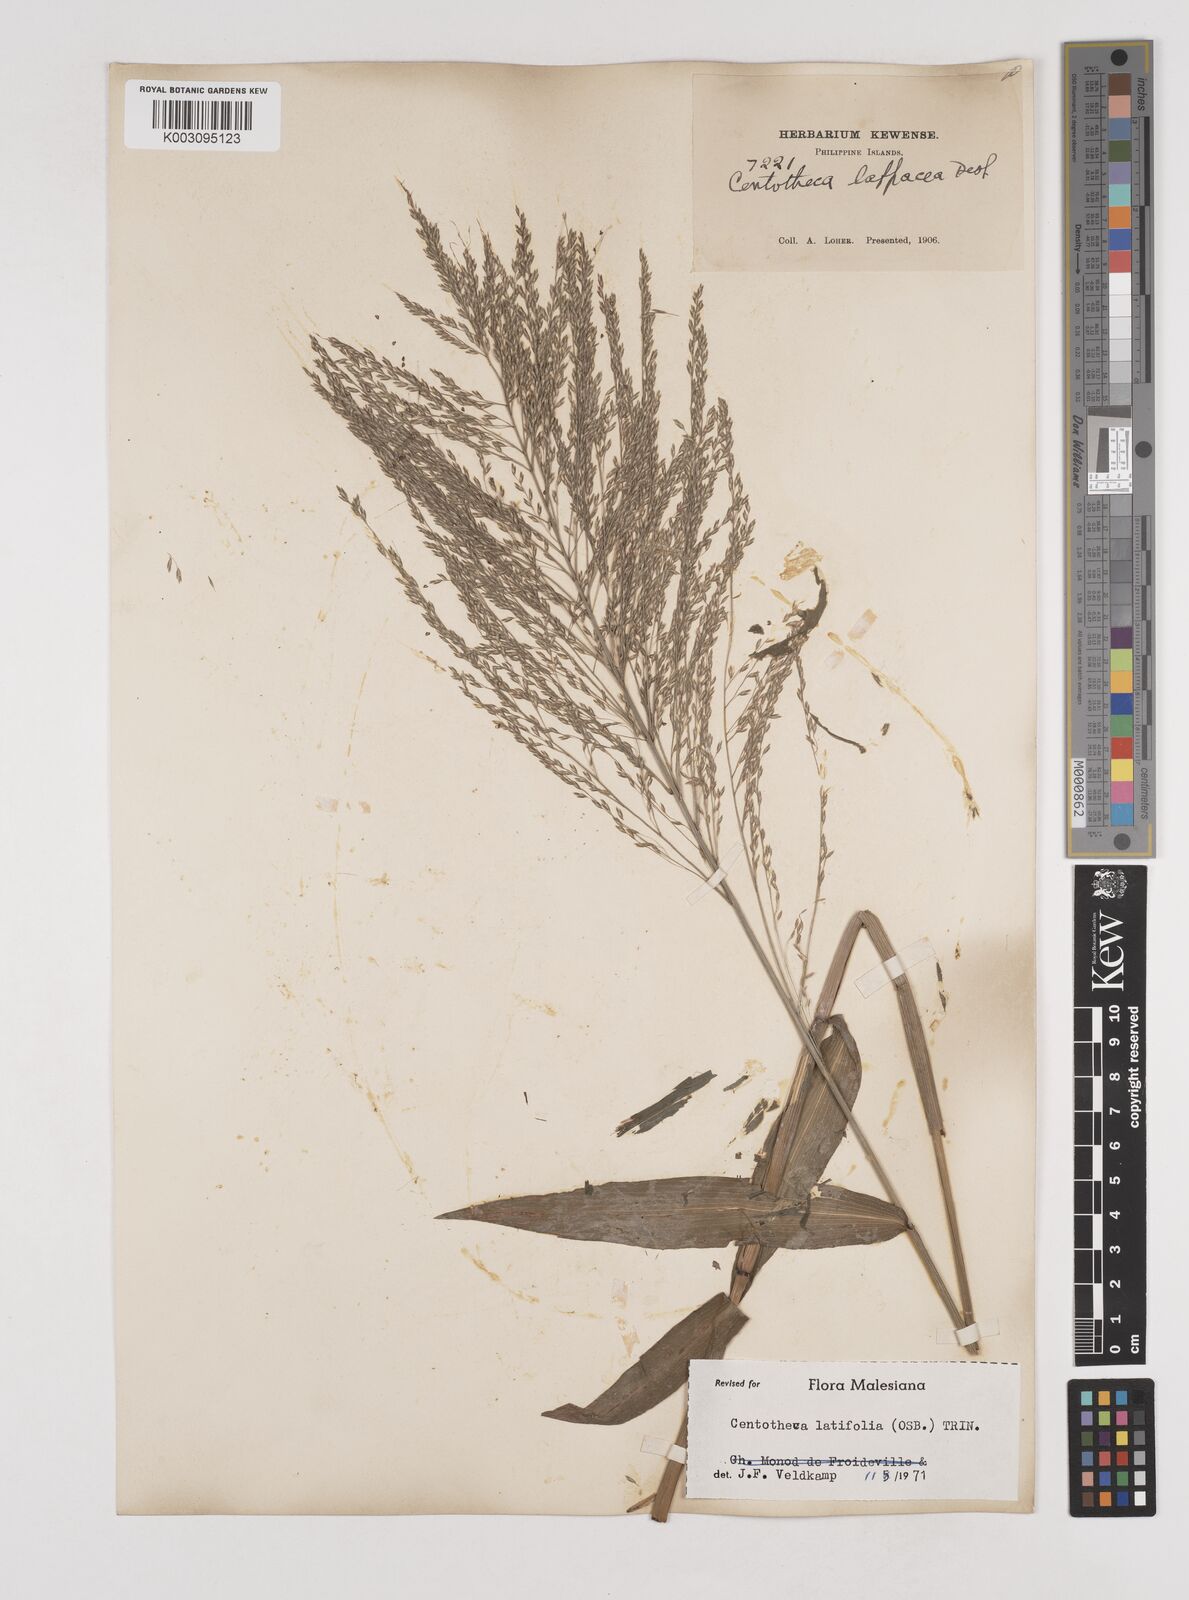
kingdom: Plantae
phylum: Tracheophyta
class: Liliopsida
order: Poales
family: Poaceae
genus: Centotheca
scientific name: Centotheca lappacea
